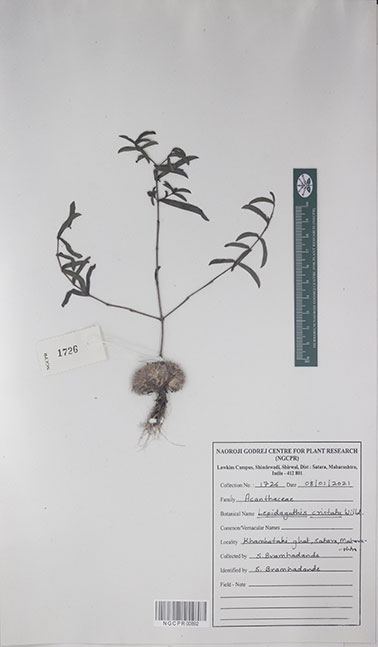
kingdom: Plantae
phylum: Tracheophyta
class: Magnoliopsida
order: Lamiales
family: Acanthaceae
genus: Lepidagathis
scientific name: Lepidagathis cristata
